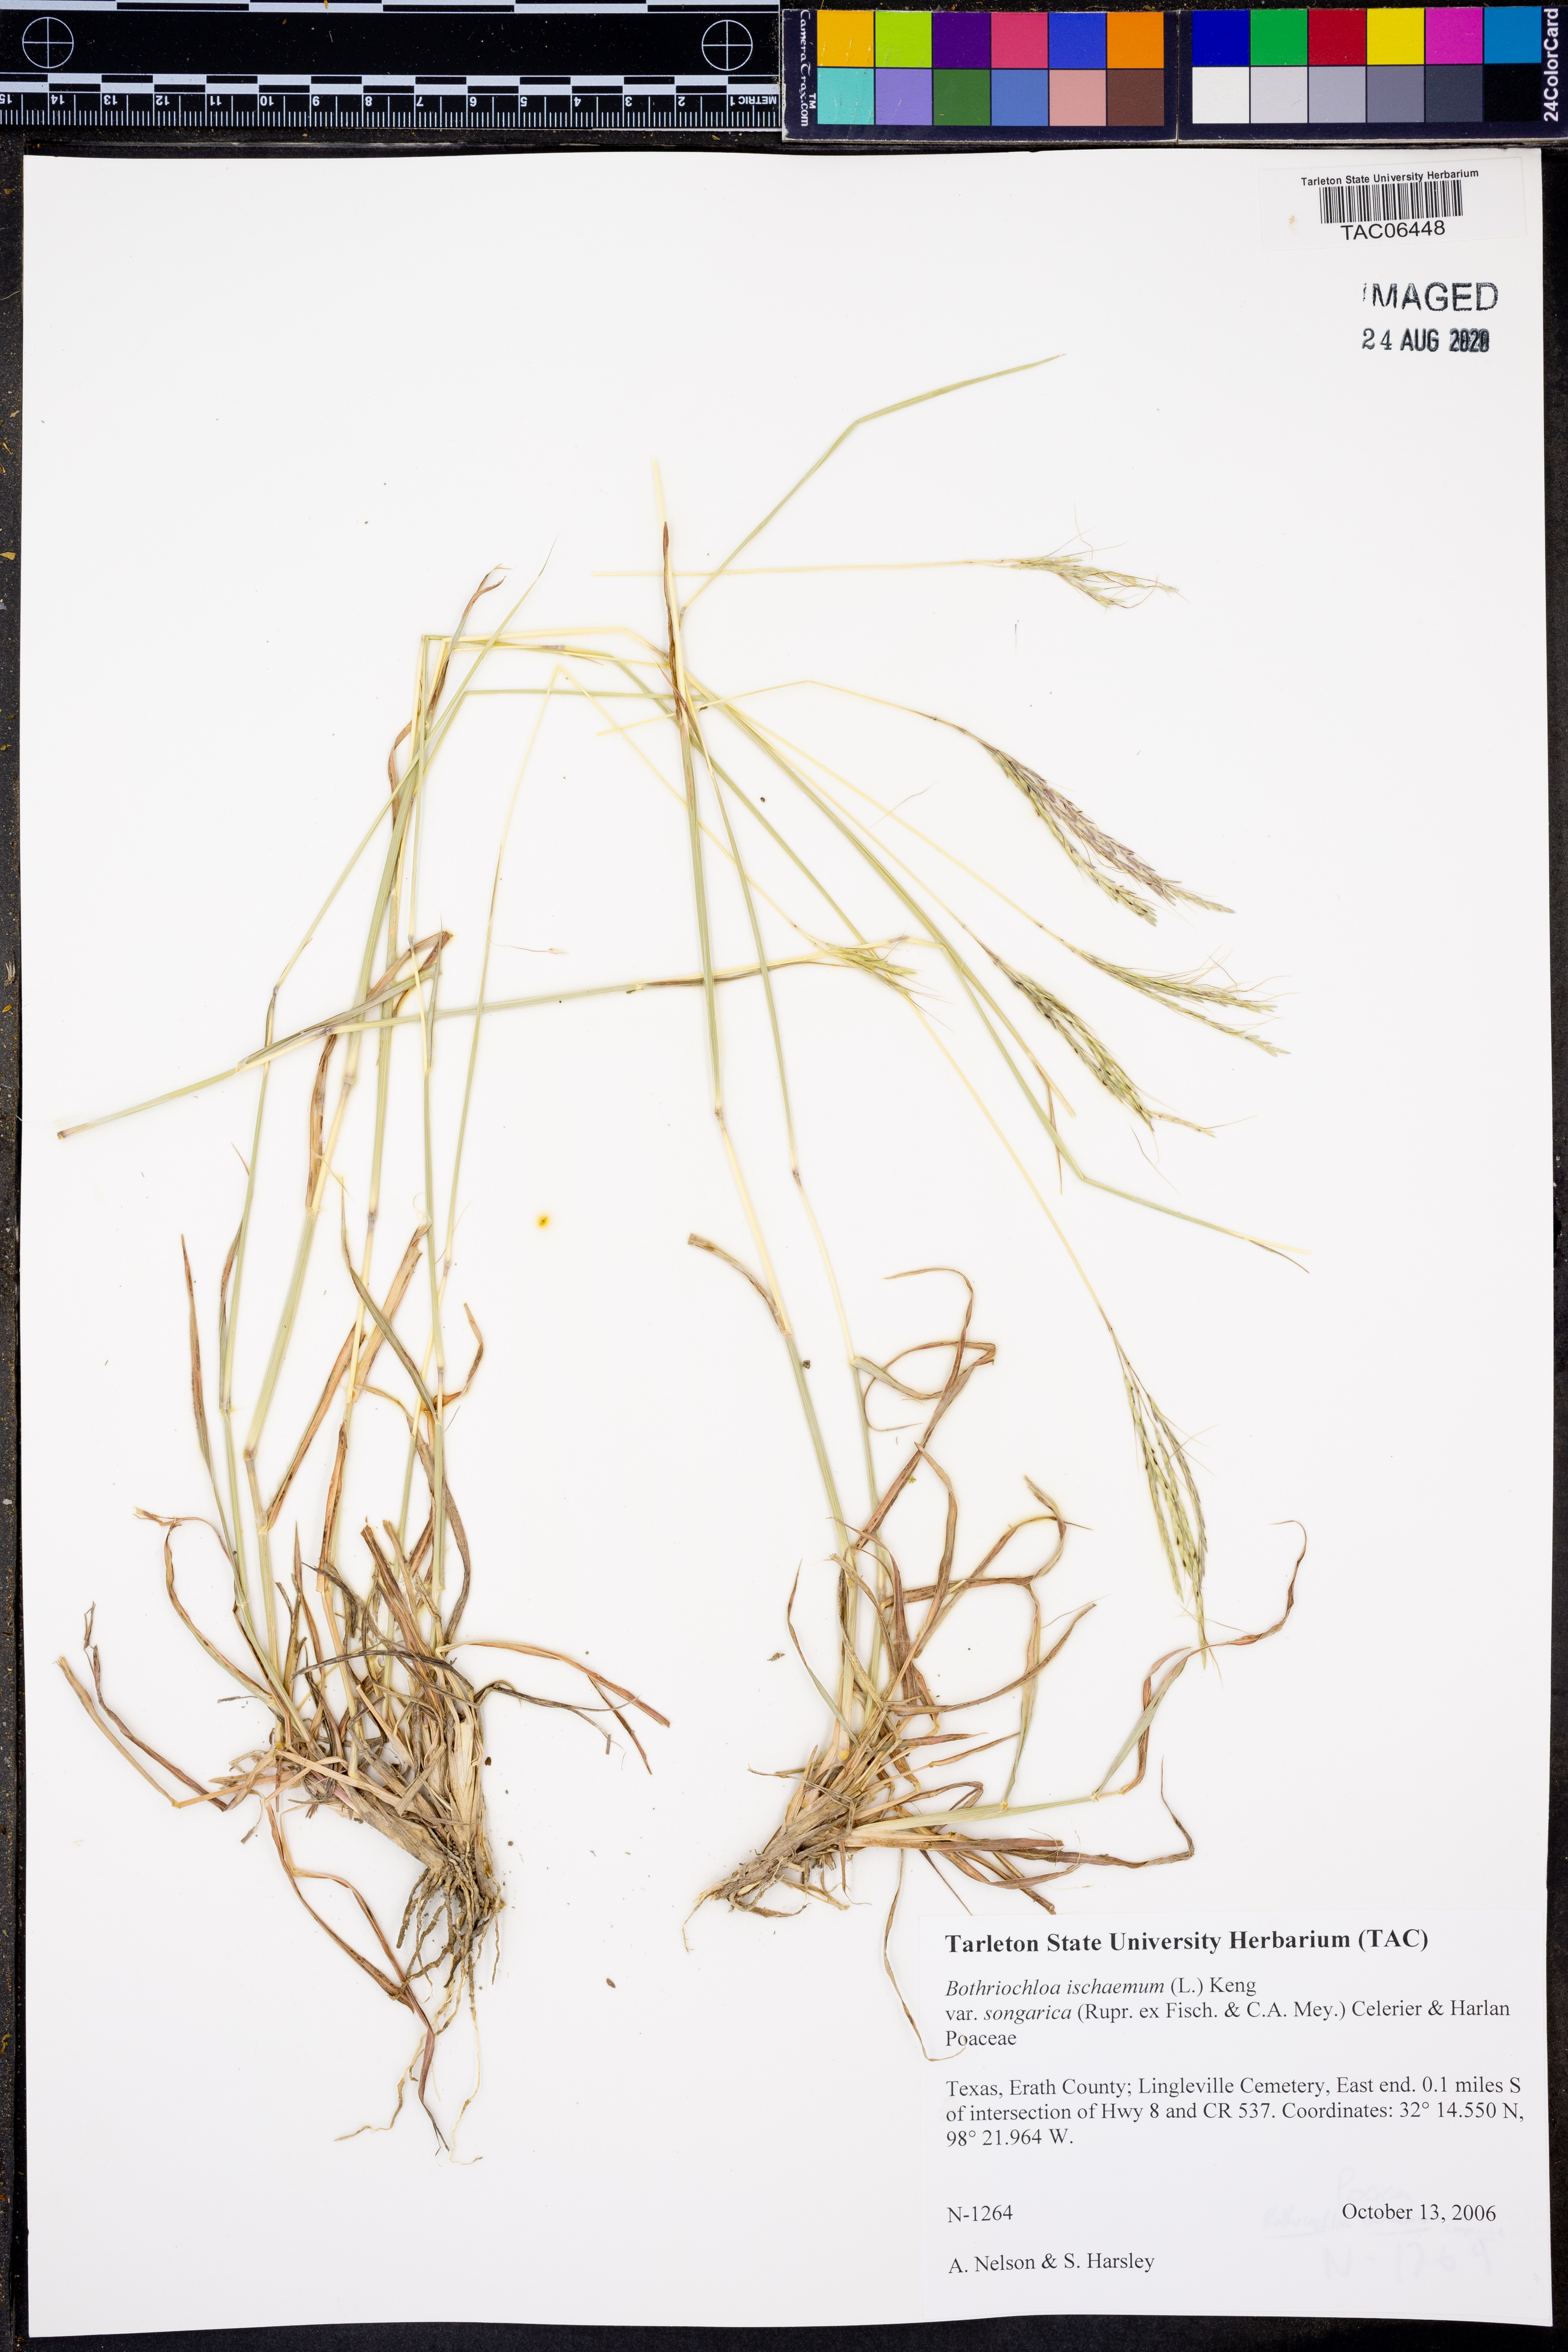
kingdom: Plantae
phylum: Tracheophyta
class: Liliopsida
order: Poales
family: Poaceae
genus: Bothriochloa
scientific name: Bothriochloa ischaemum
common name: Yellow bluestem
